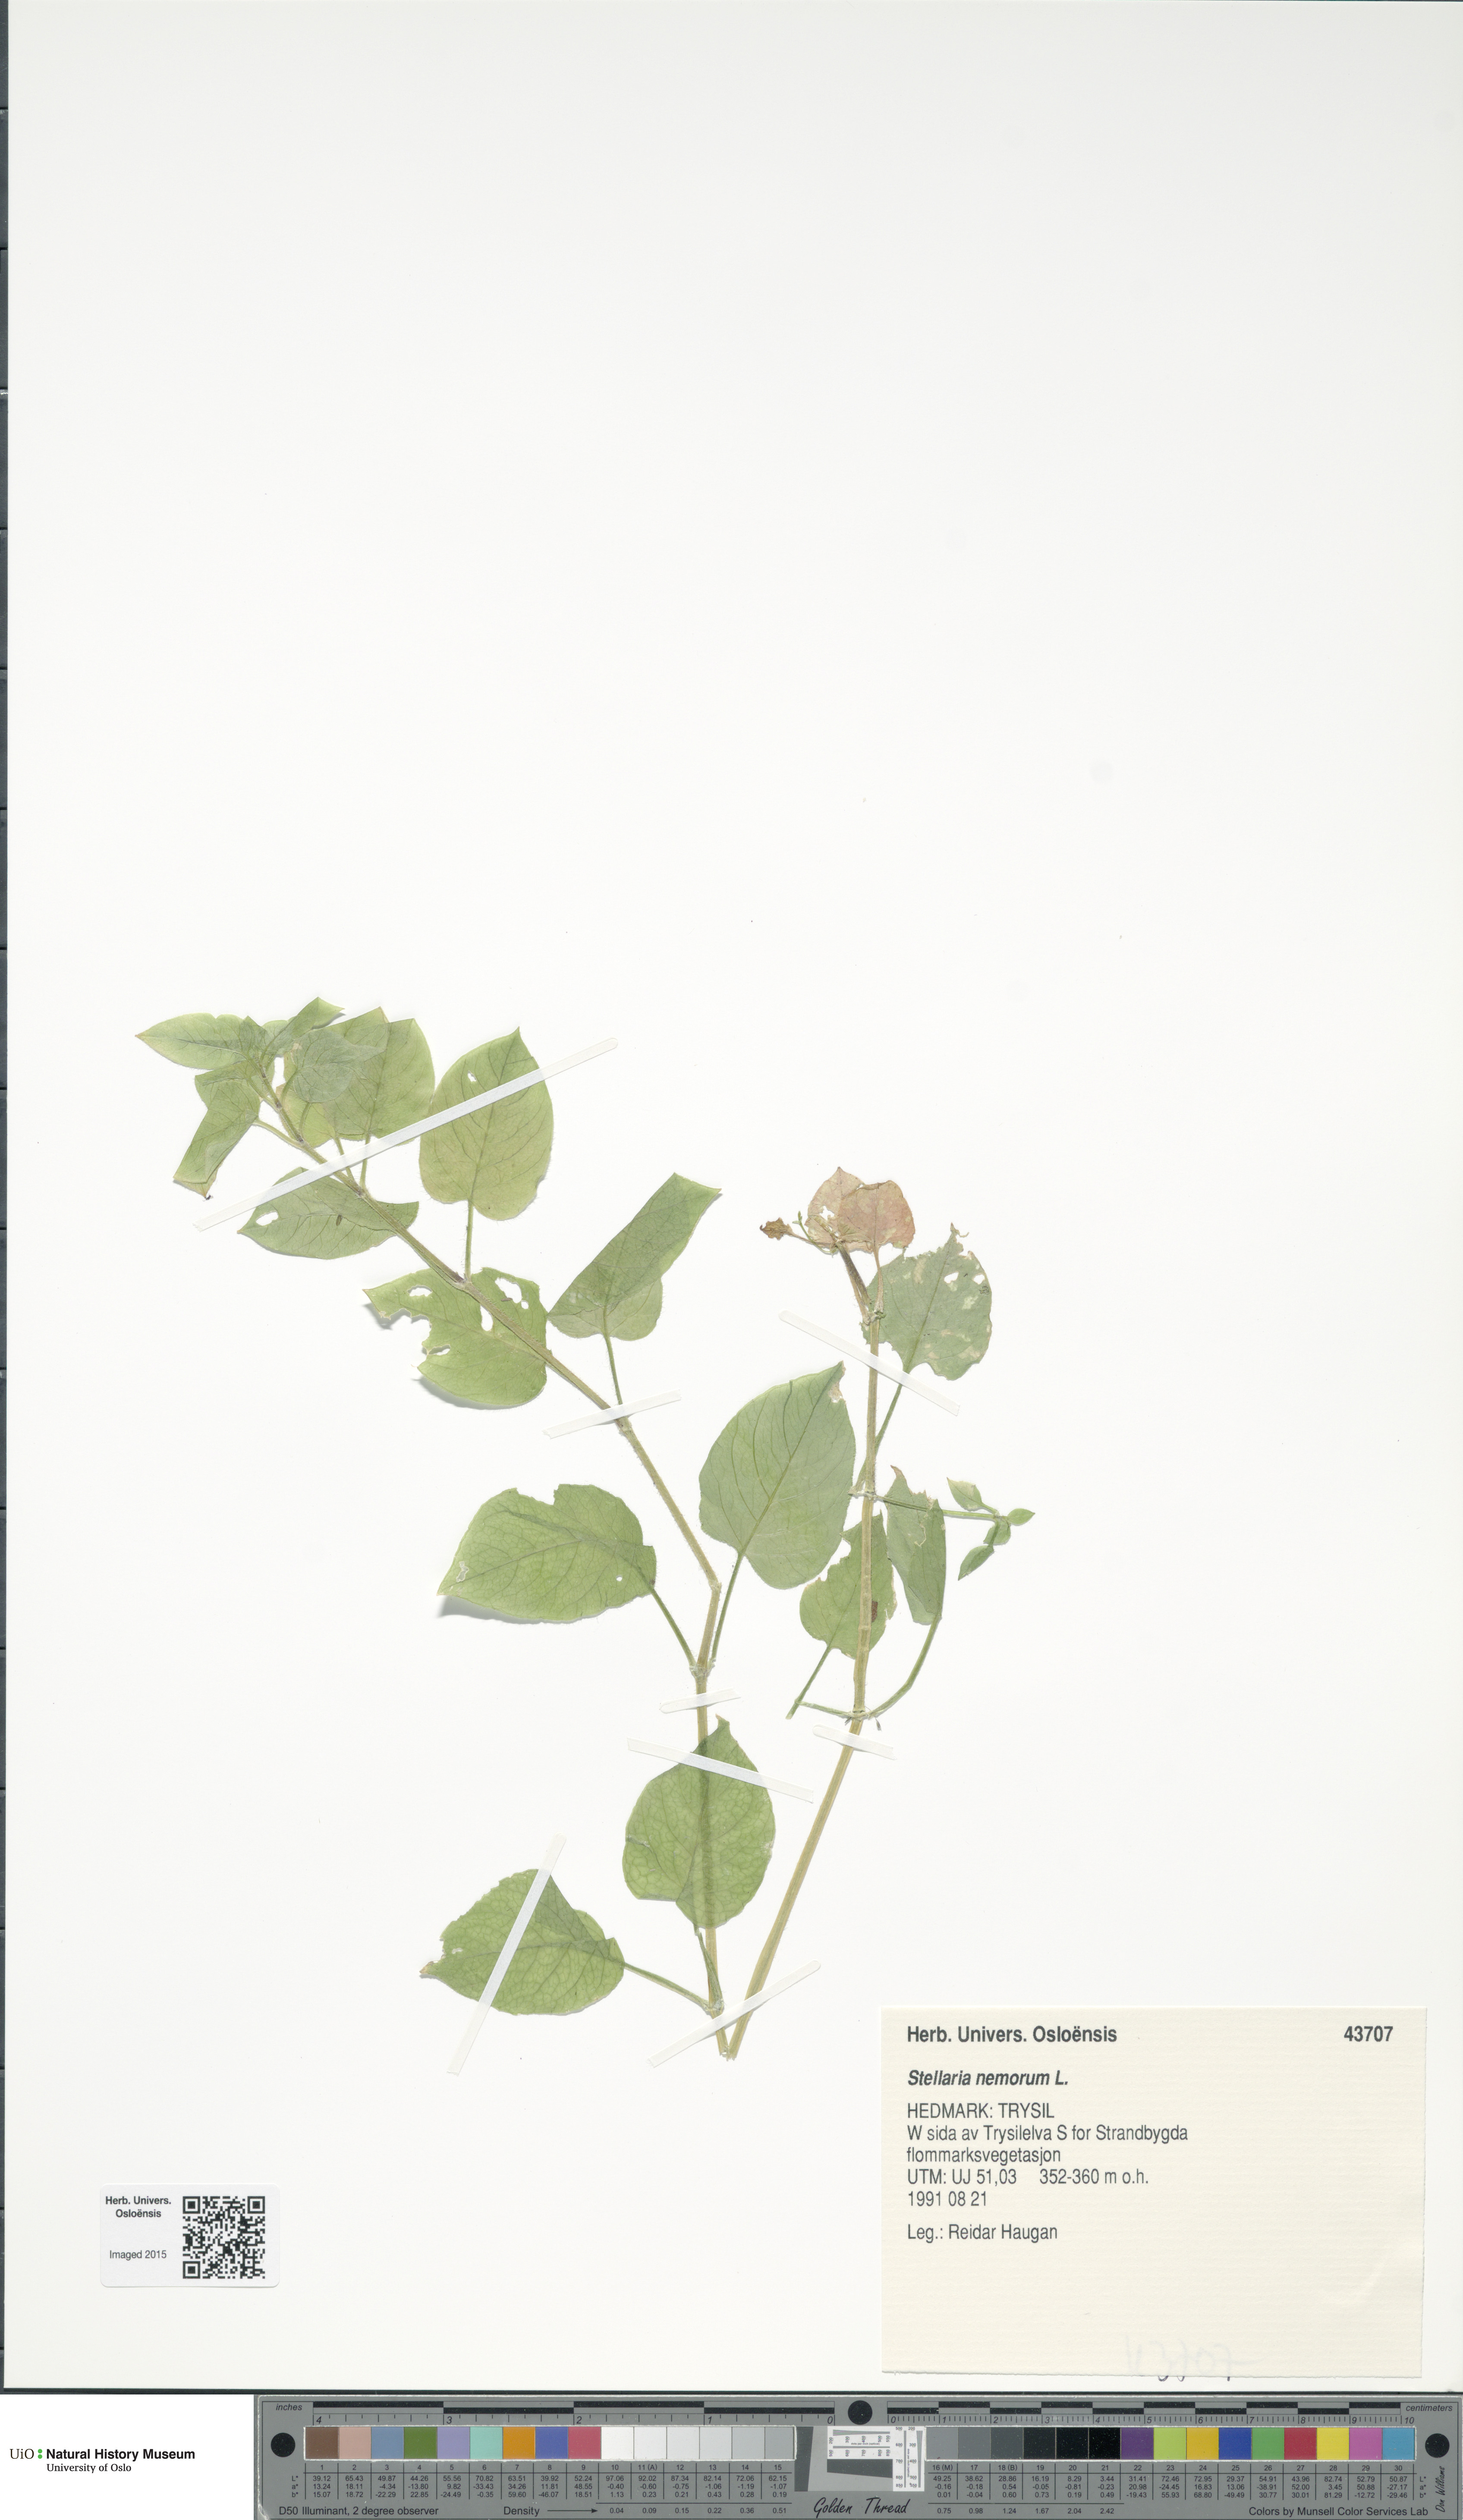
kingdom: Plantae
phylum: Tracheophyta
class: Magnoliopsida
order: Caryophyllales
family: Caryophyllaceae
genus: Stellaria
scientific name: Stellaria nemorum
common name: Wood stitchwort
